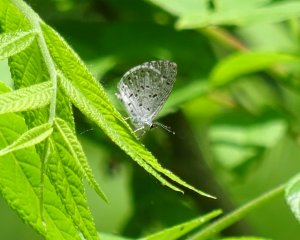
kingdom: Animalia
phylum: Arthropoda
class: Insecta
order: Lepidoptera
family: Lycaenidae
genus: Celastrina
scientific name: Celastrina
